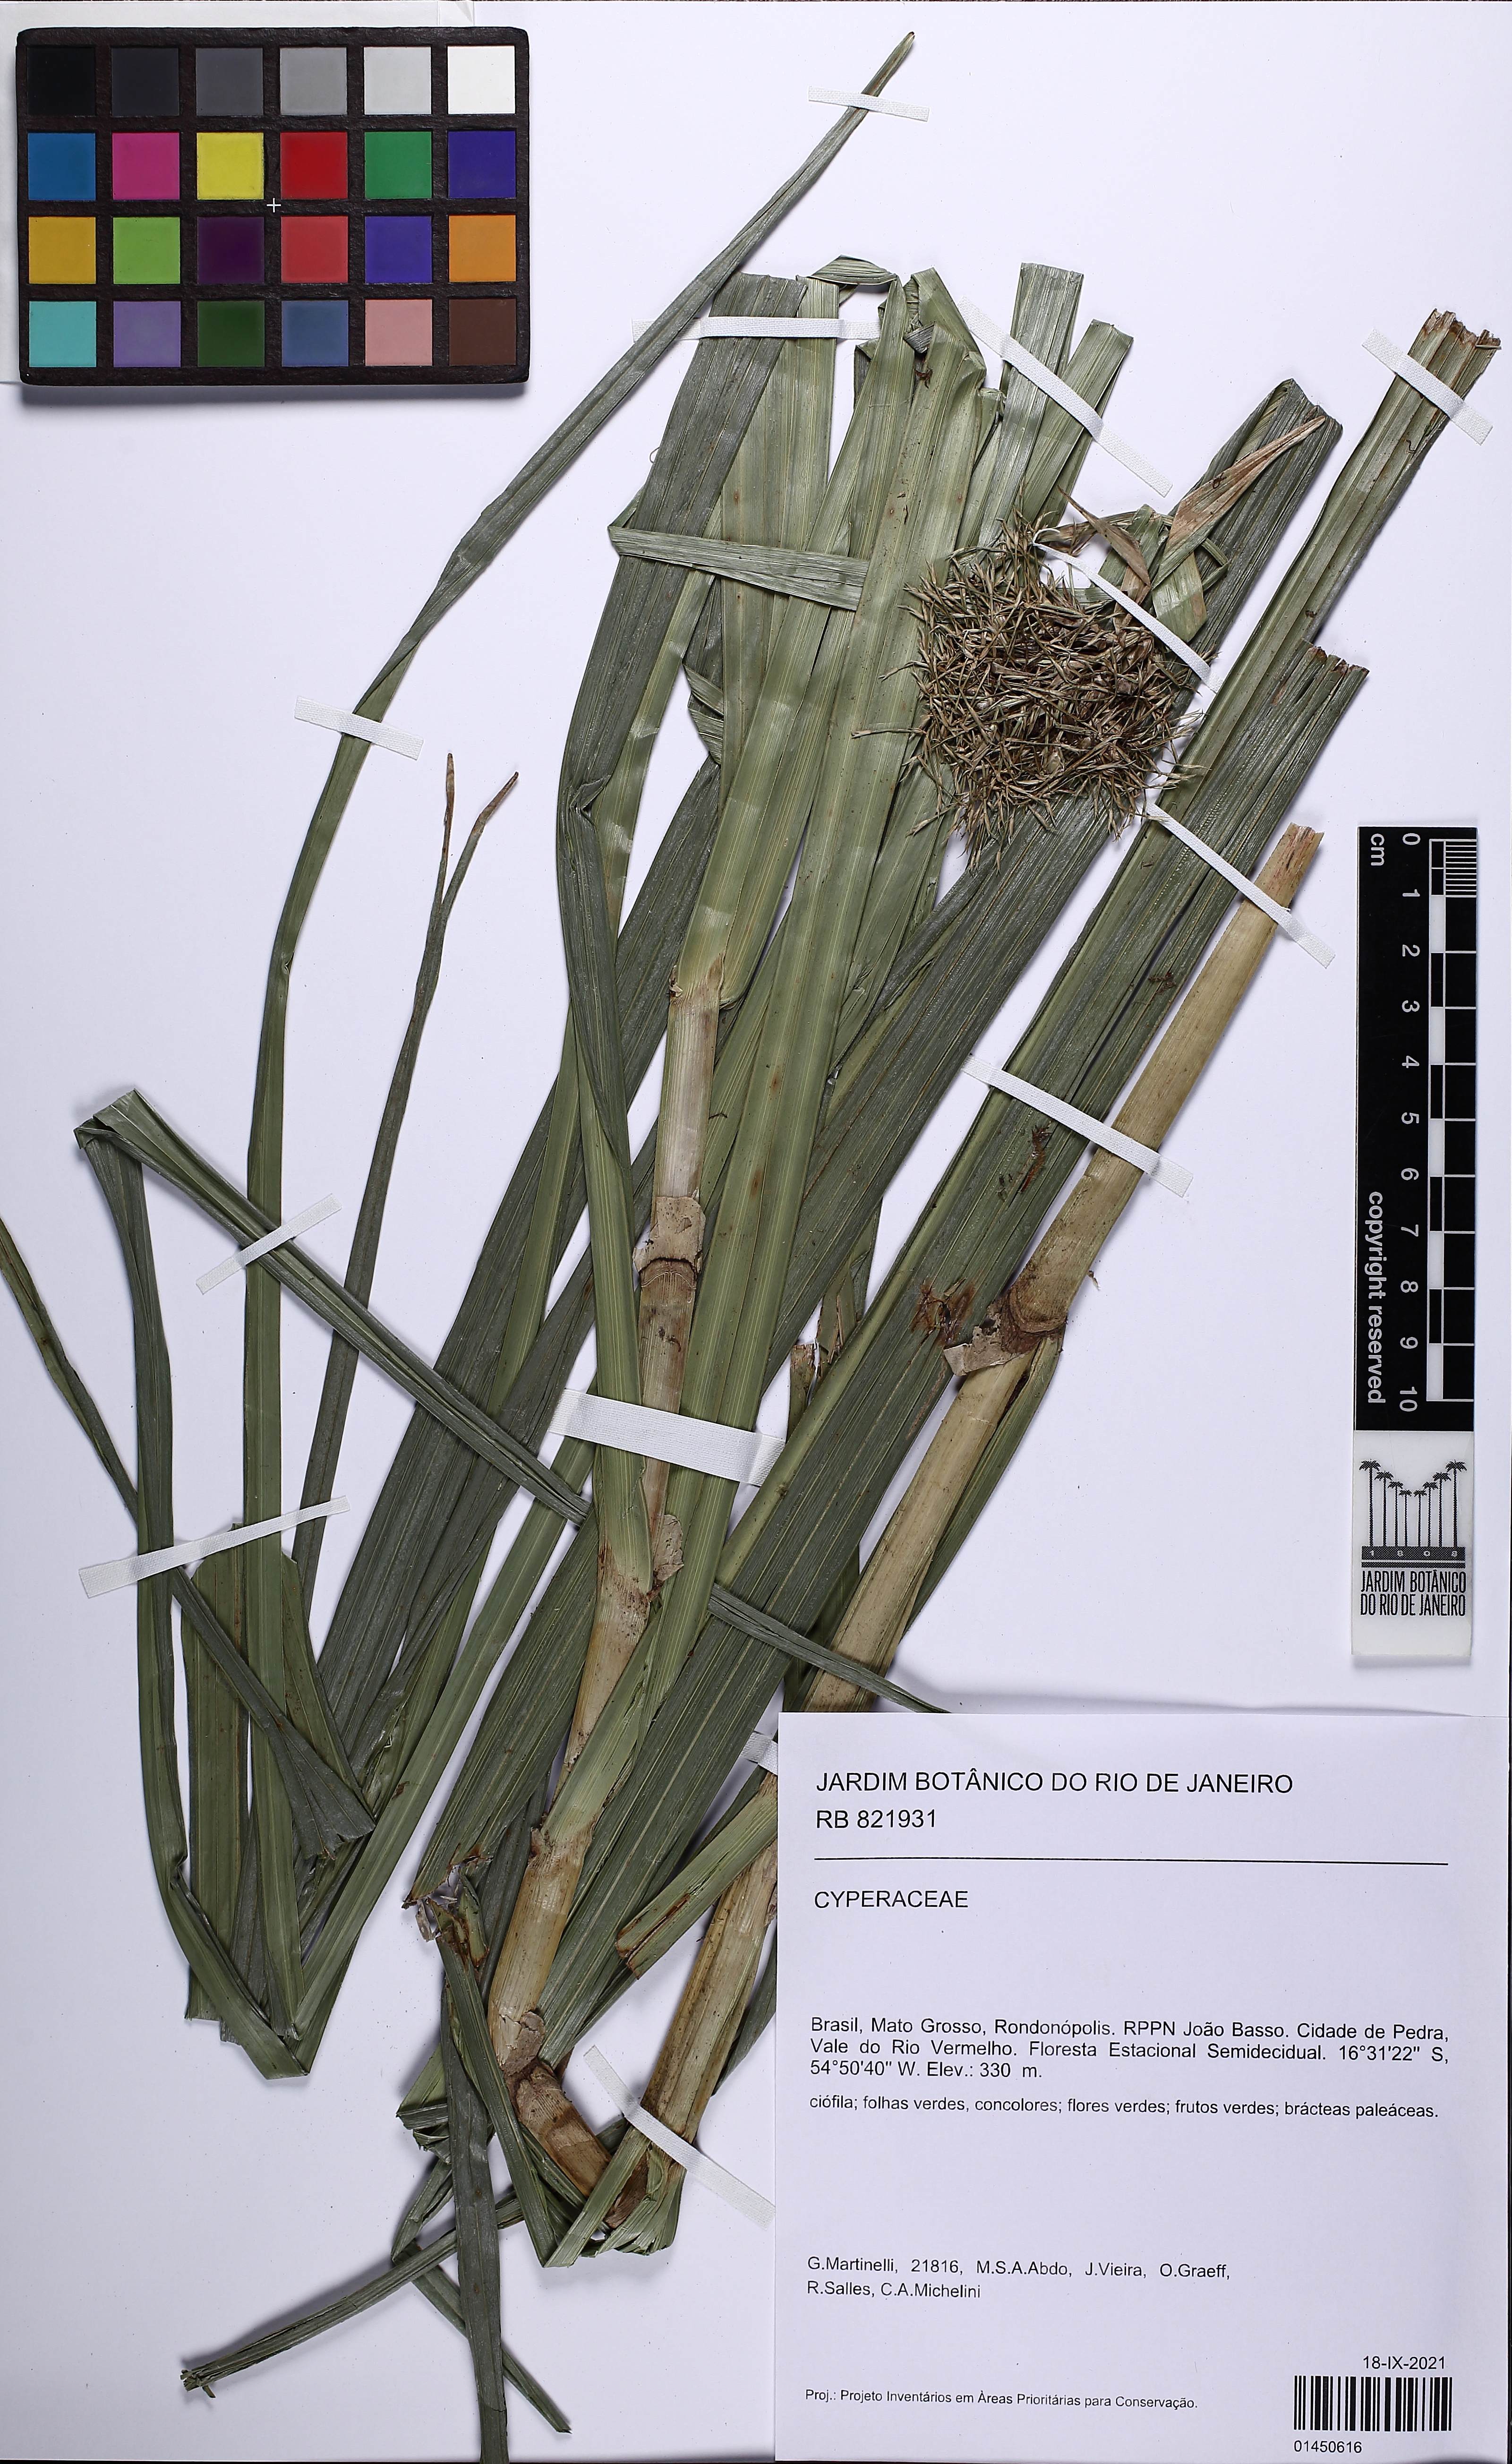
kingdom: Plantae
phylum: Tracheophyta
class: Liliopsida
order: Poales
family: Cyperaceae
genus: Scleria
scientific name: Scleria
